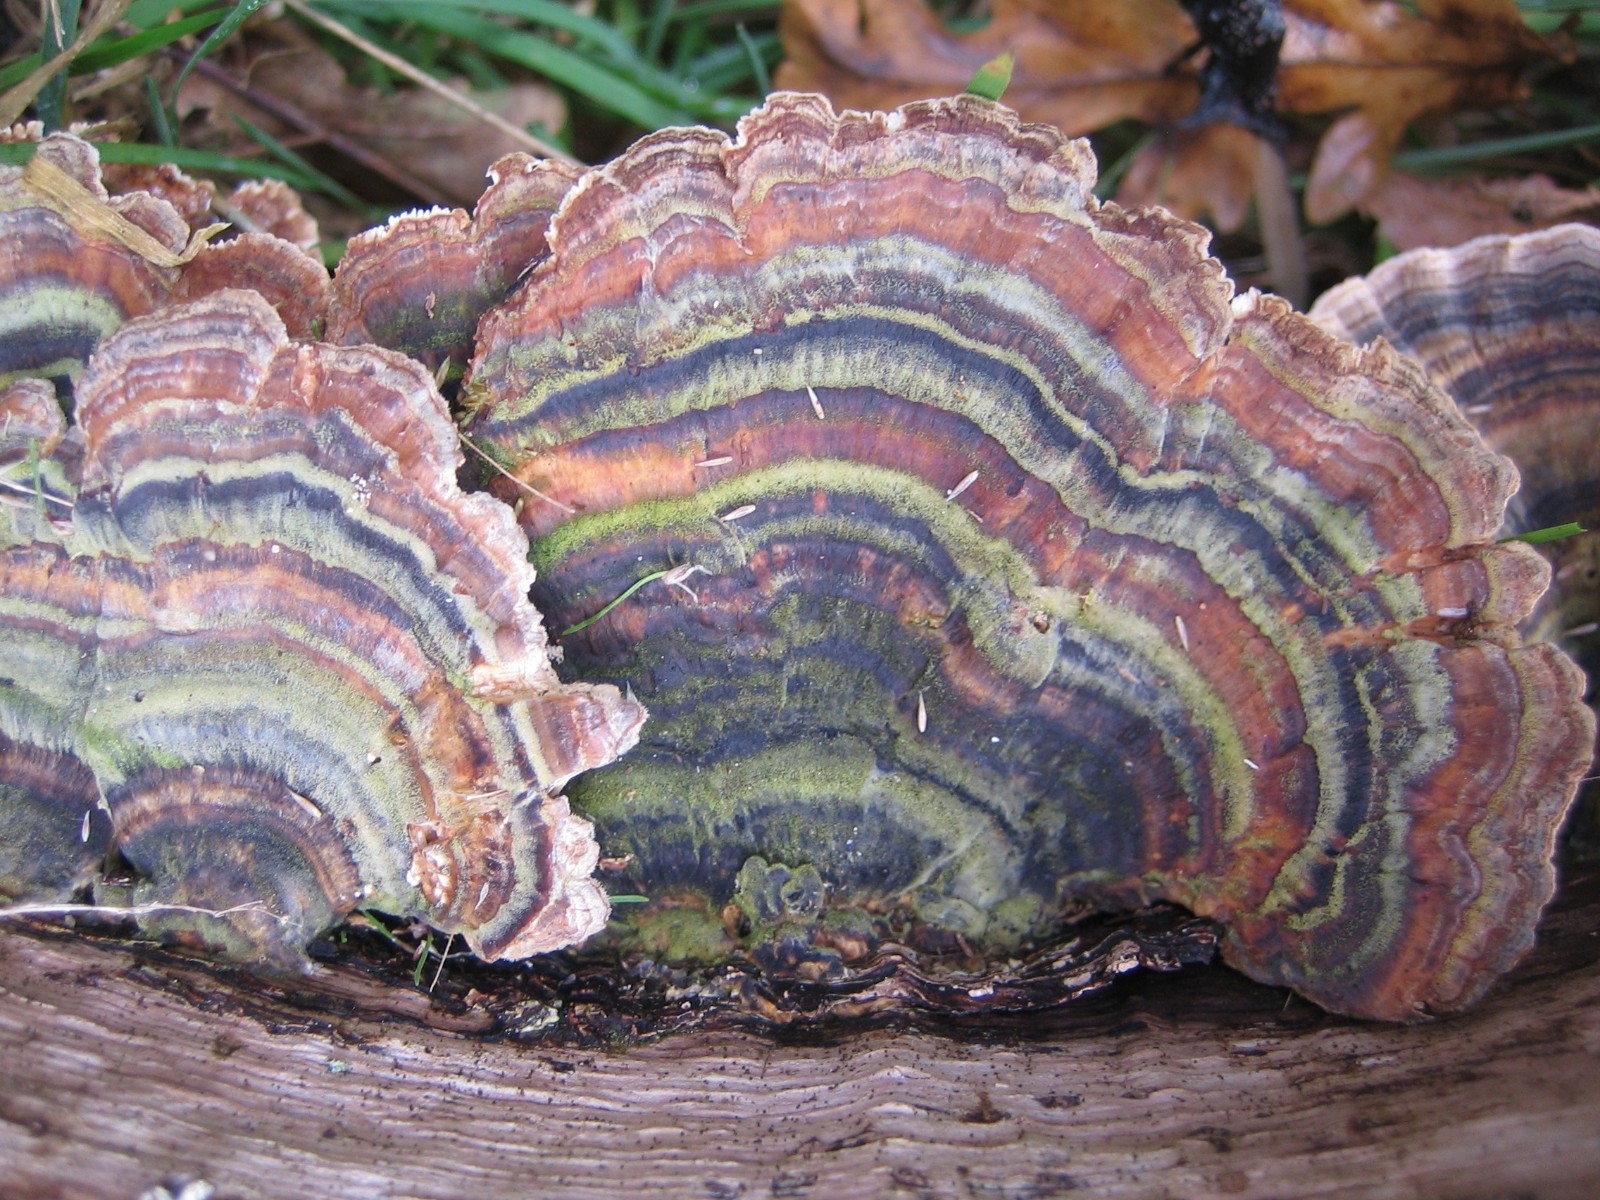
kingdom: Fungi
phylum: Basidiomycota
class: Agaricomycetes
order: Polyporales
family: Polyporaceae
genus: Trametes
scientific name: Trametes versicolor
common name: broget læderporesvamp
